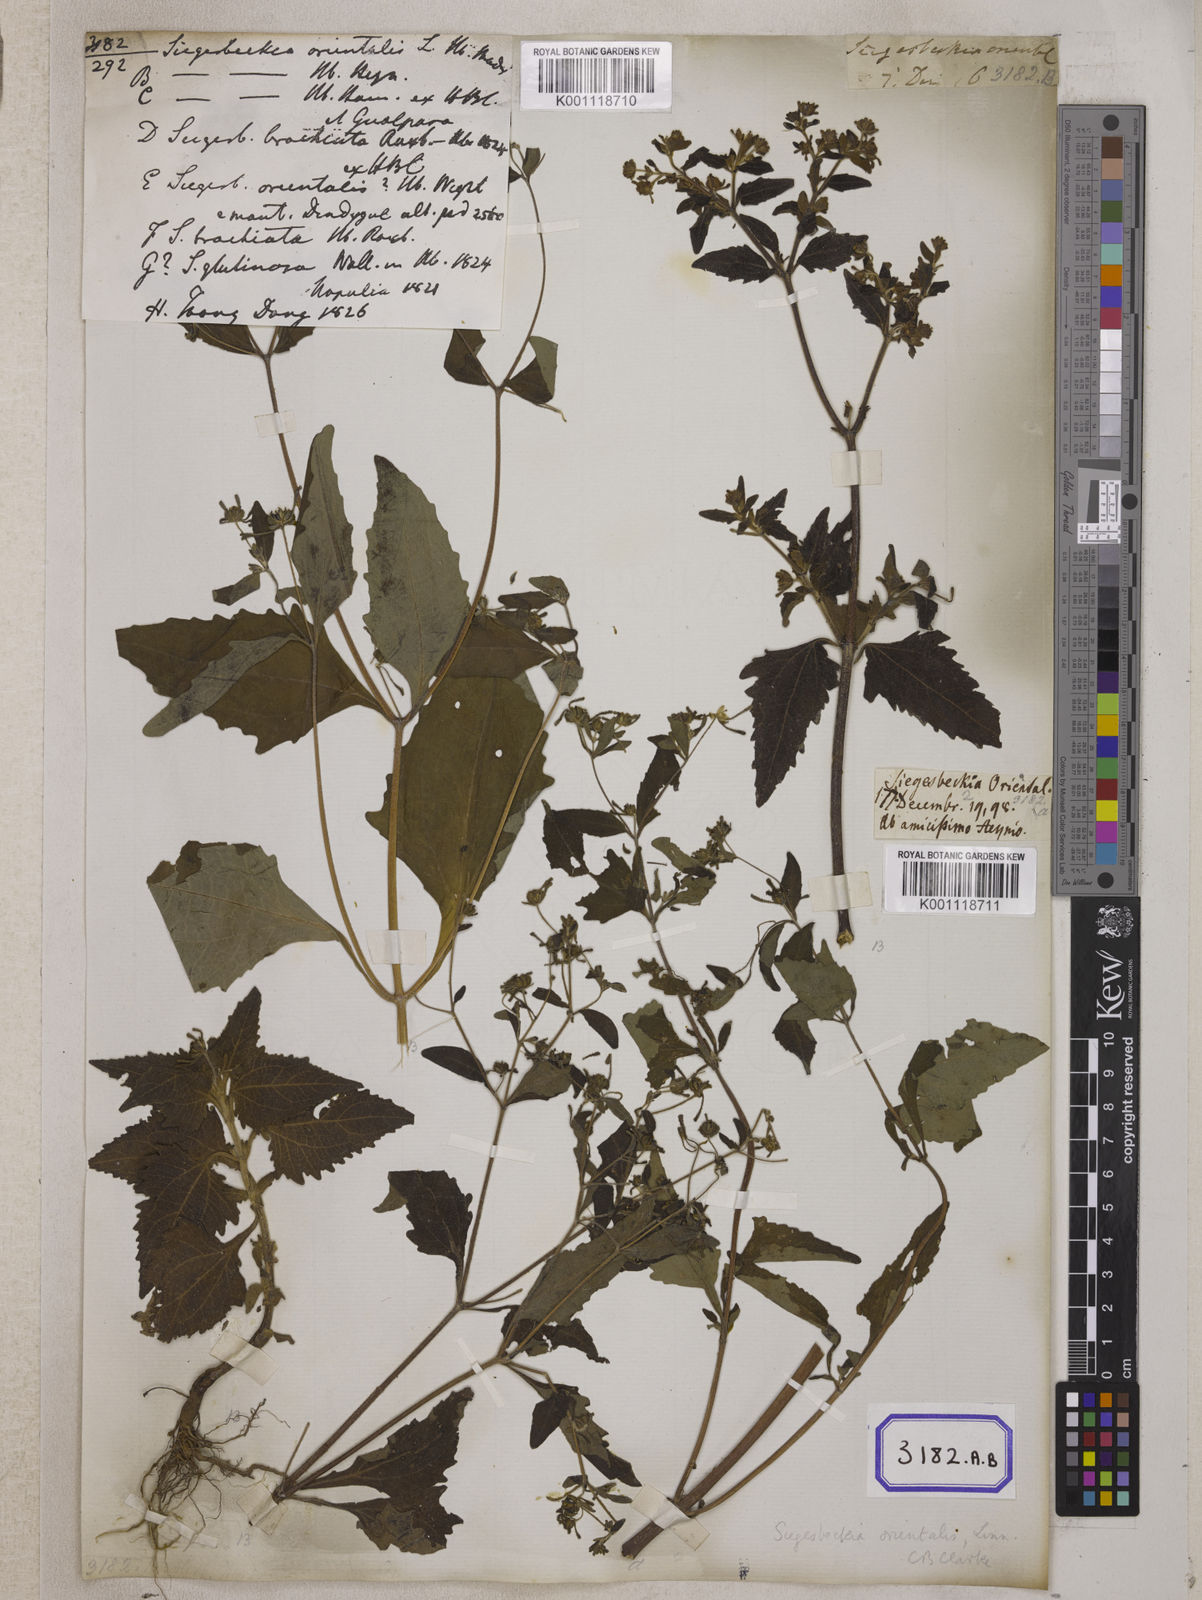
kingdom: Plantae
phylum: Tracheophyta
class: Magnoliopsida
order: Asterales
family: Asteraceae
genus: Sigesbeckia
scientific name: Sigesbeckia orientalis
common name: Eastern st paul's-wort
